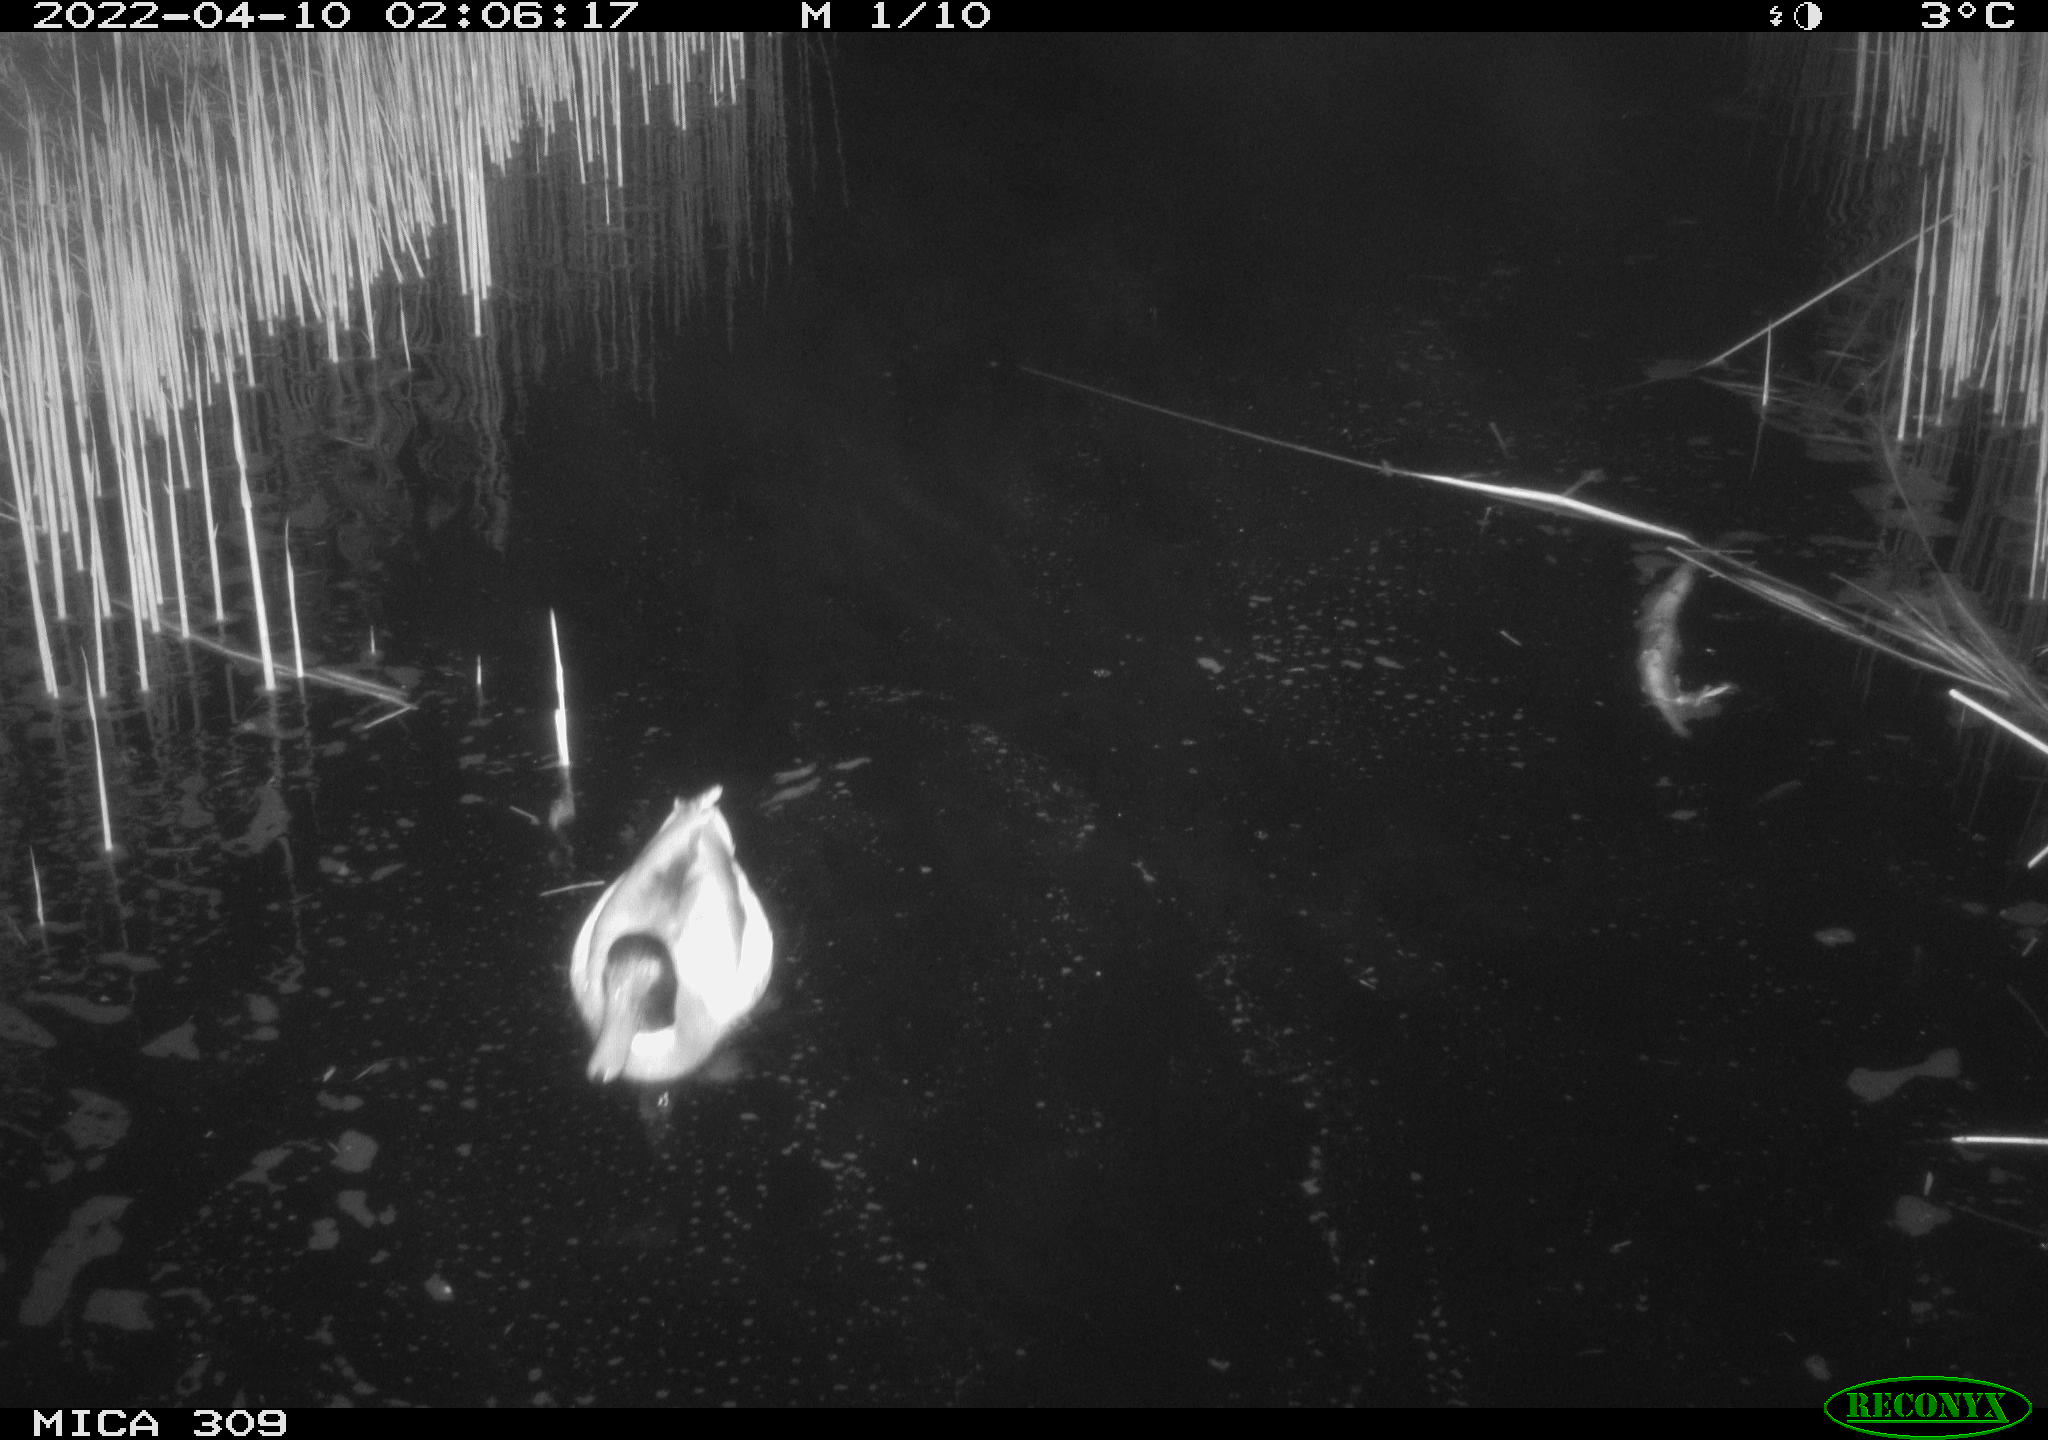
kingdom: Animalia
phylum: Chordata
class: Aves
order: Anseriformes
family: Anatidae
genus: Anas
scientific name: Anas platyrhynchos
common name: Mallard
